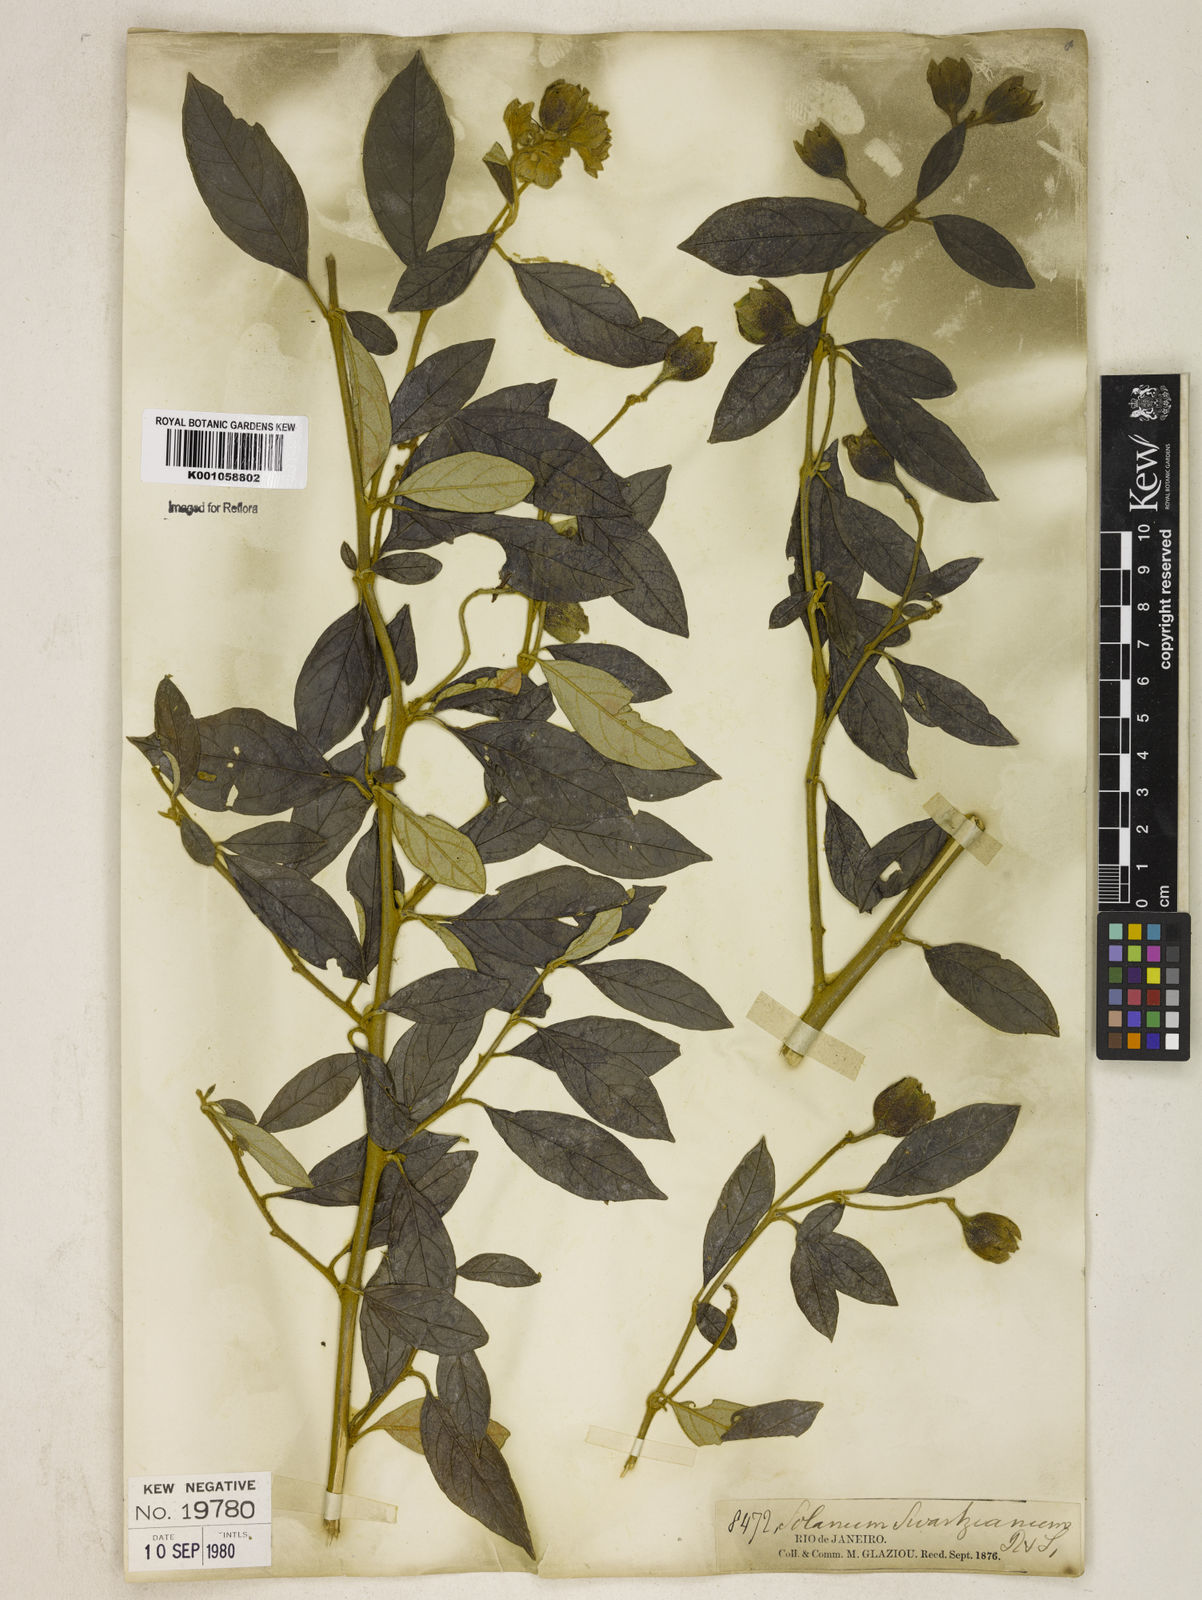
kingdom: Plantae
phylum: Tracheophyta
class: Magnoliopsida
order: Solanales
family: Solanaceae
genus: Solanum
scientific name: Solanum swartzianum
